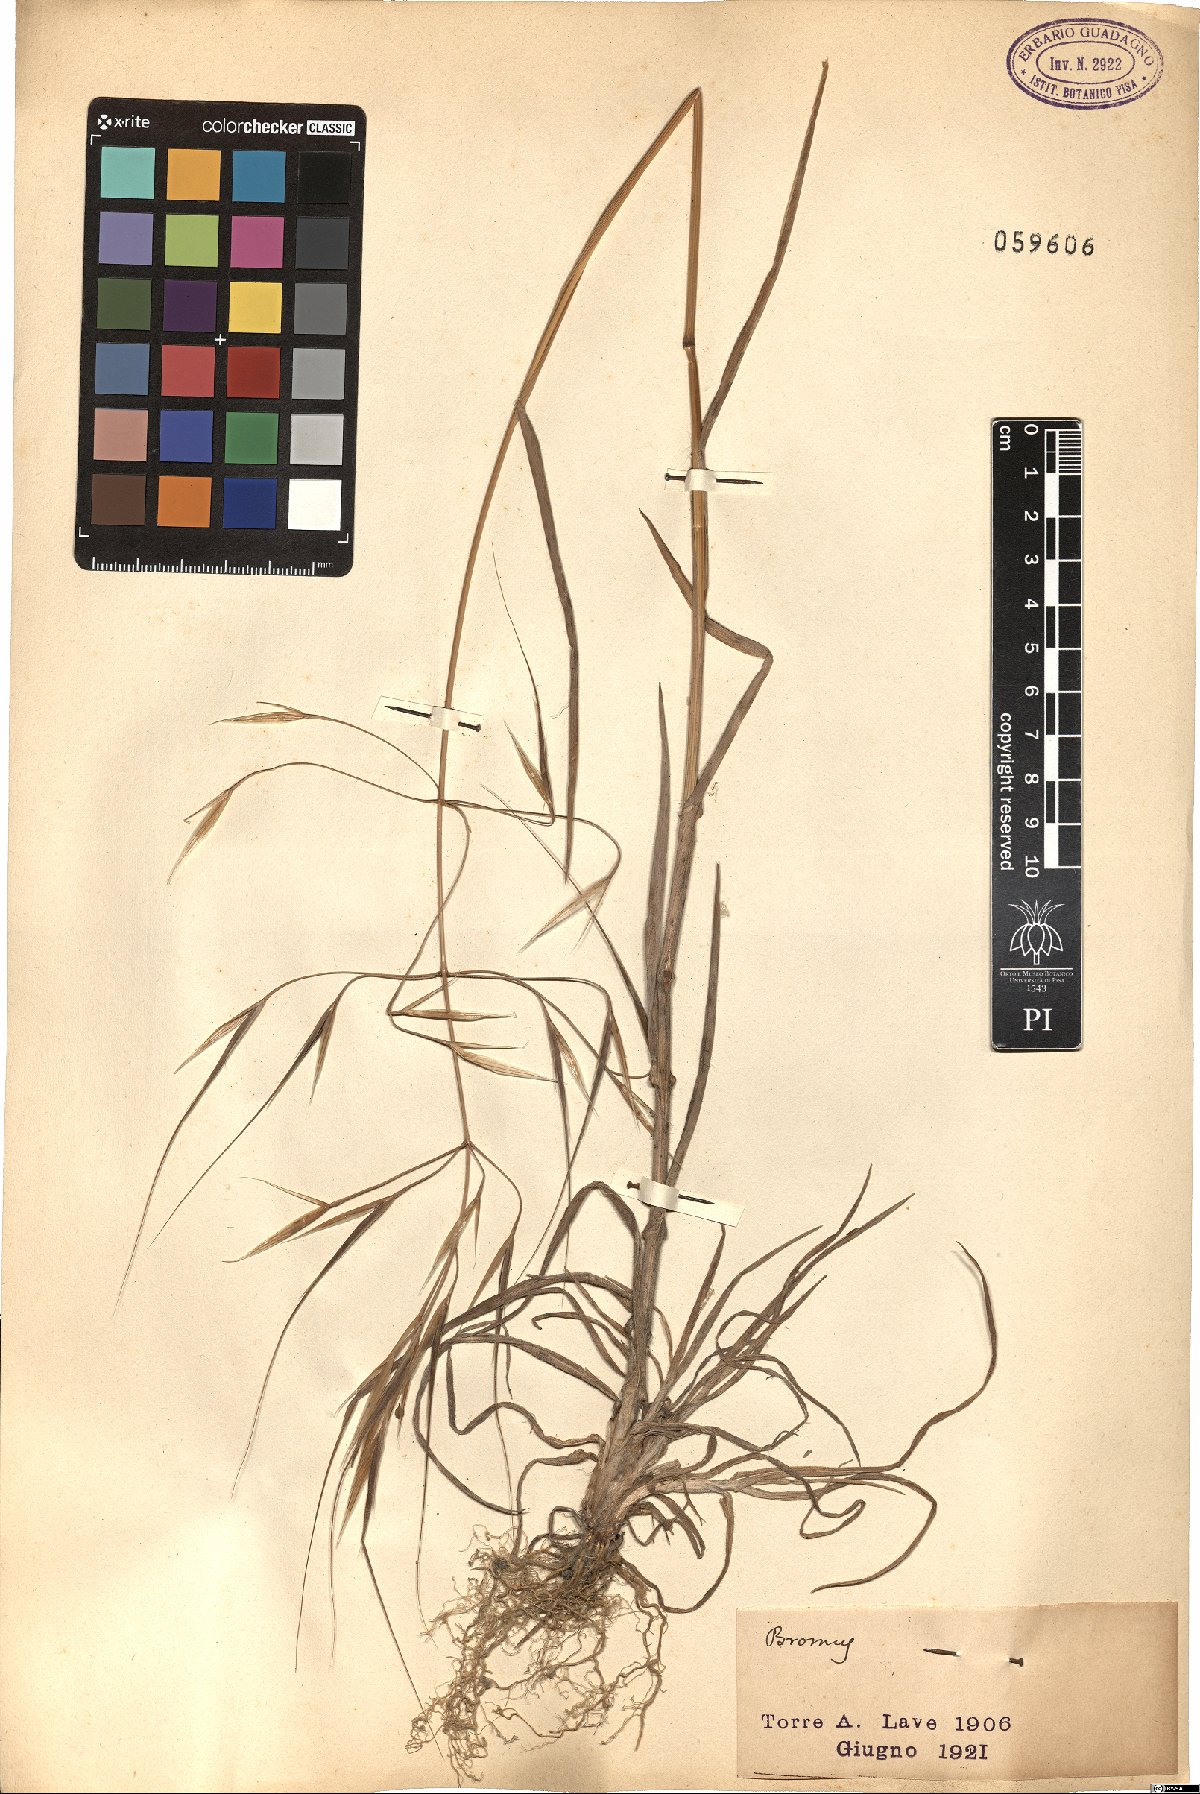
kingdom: Plantae
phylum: Tracheophyta
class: Liliopsida
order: Poales
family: Poaceae
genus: Bromus
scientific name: Bromus
